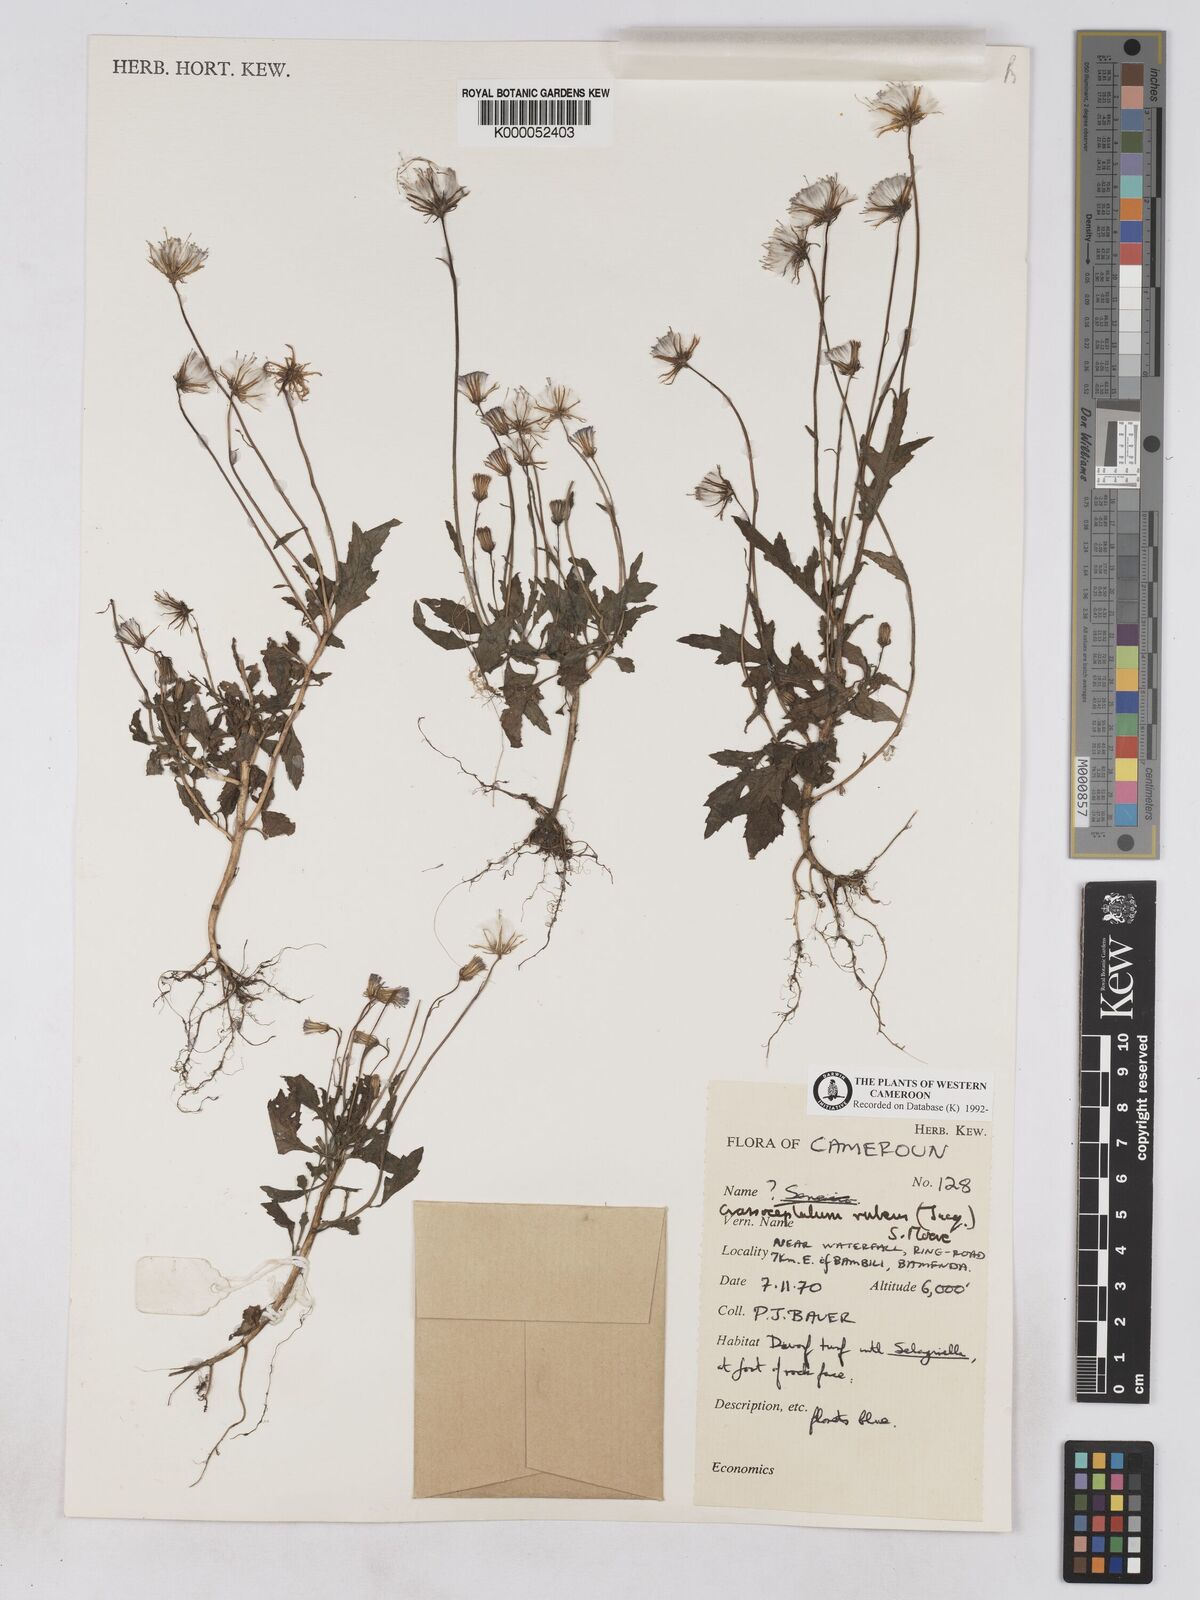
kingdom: Plantae
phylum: Tracheophyta
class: Magnoliopsida
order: Asterales
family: Asteraceae
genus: Crassocephalum
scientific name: Crassocephalum rubens
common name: Yoruban bologi
